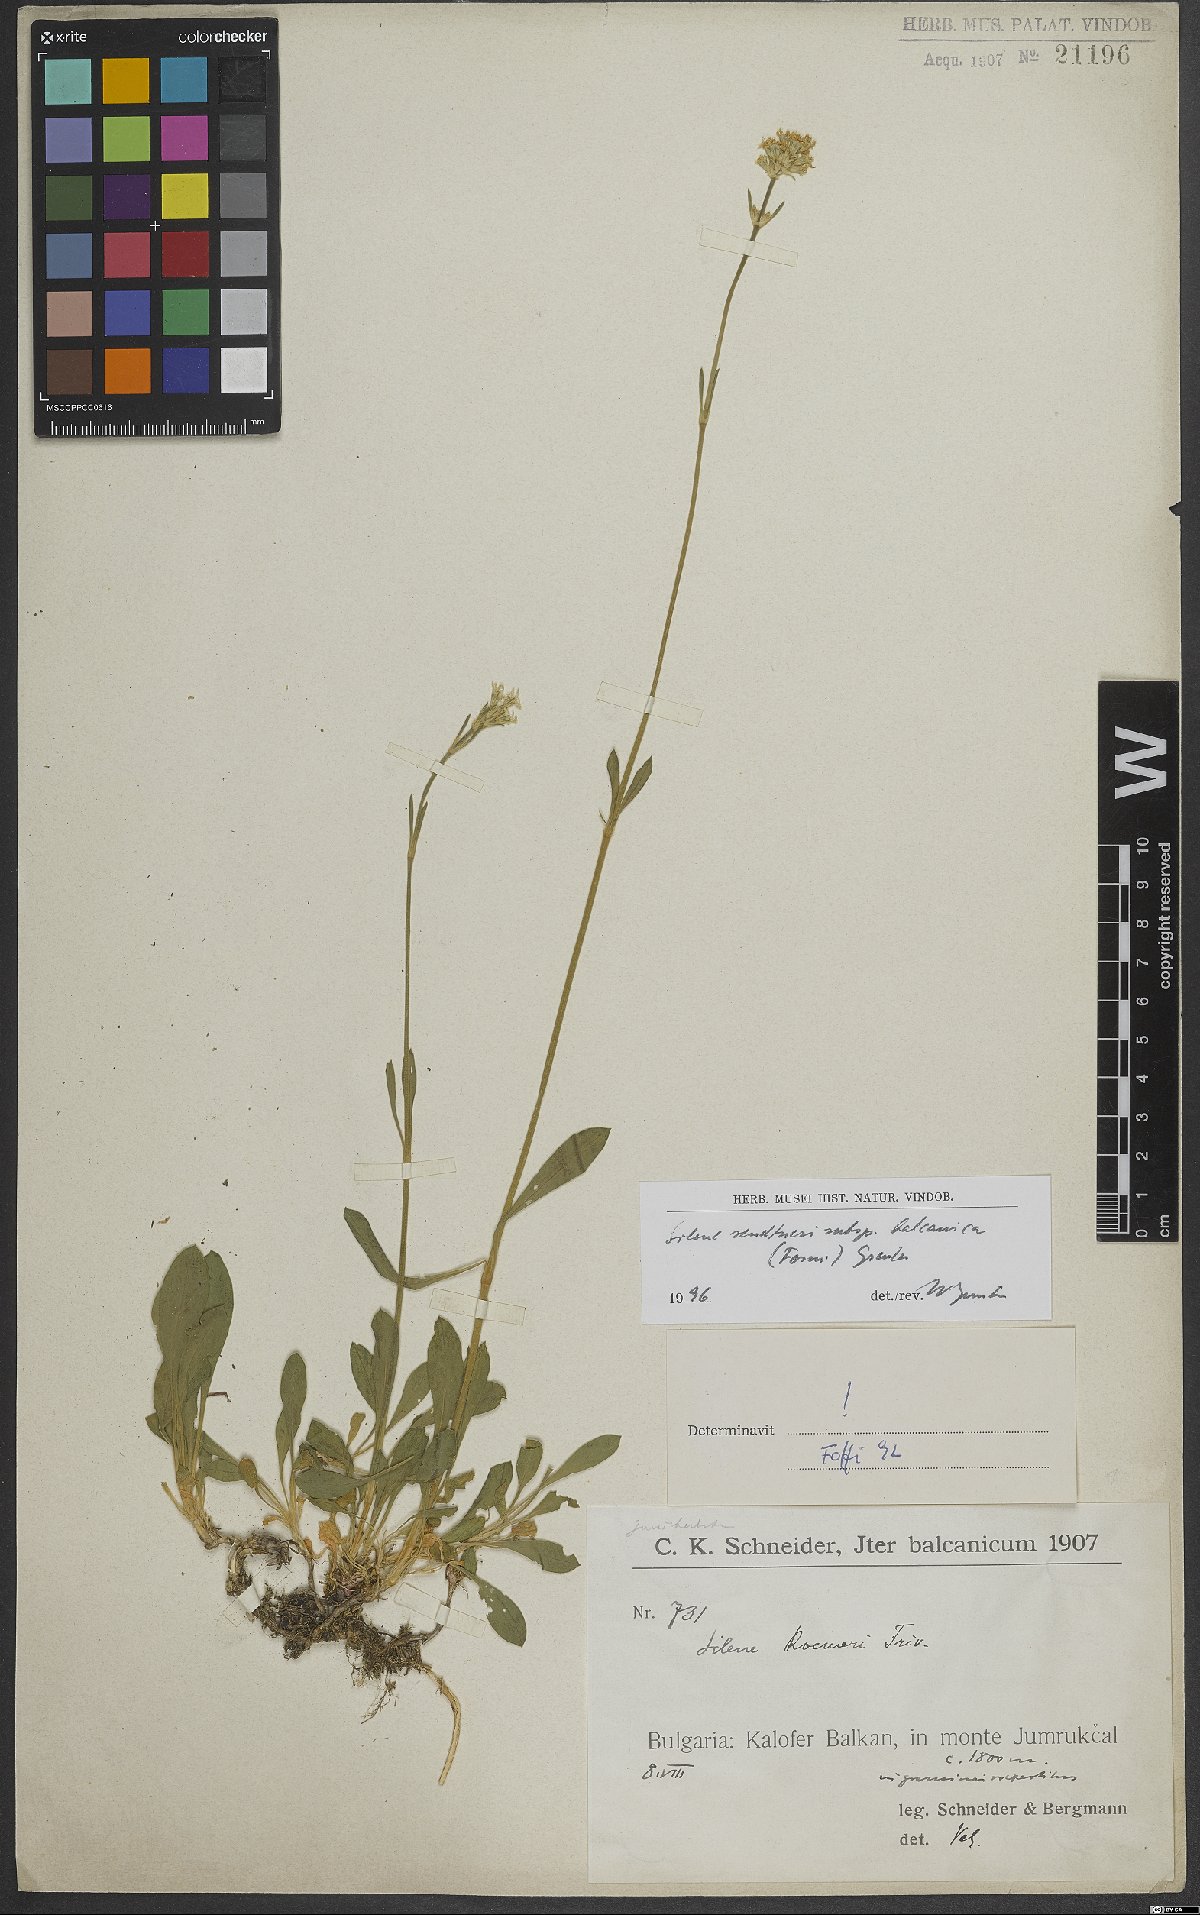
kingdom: Plantae
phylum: Tracheophyta
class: Magnoliopsida
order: Caryophyllales
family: Caryophyllaceae
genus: Silene
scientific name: Silene sendtneri
